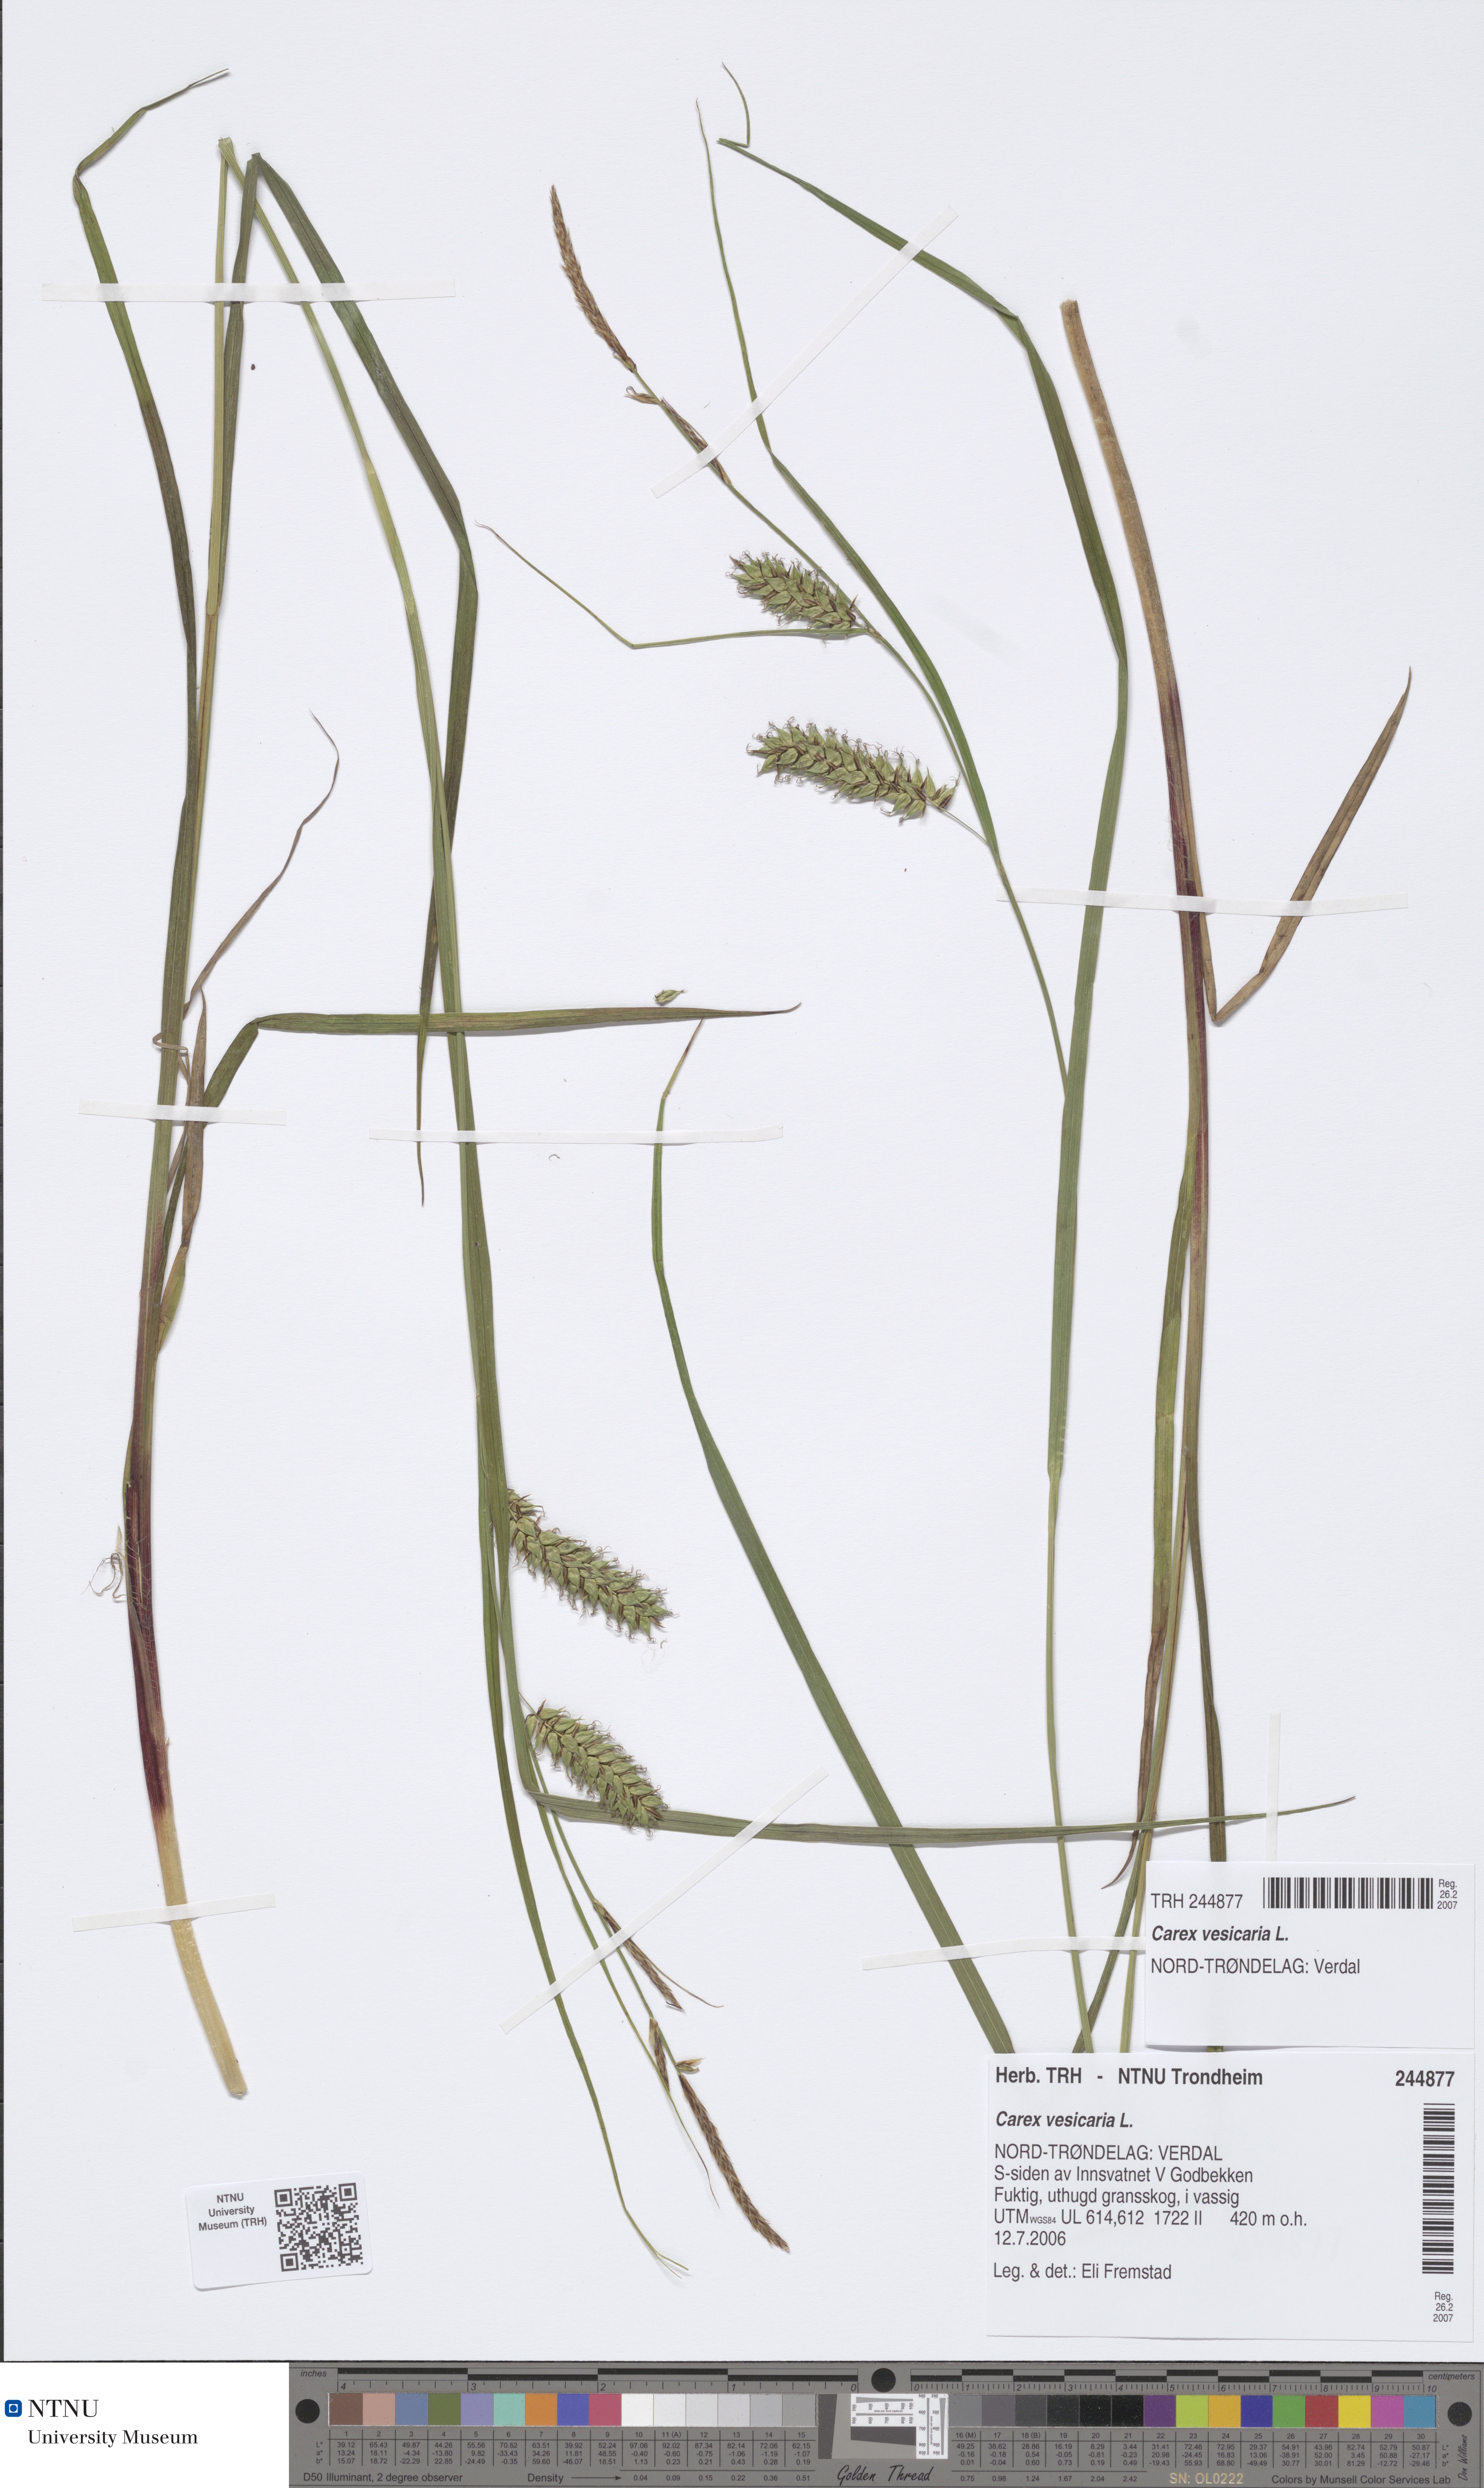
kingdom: Plantae
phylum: Tracheophyta
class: Liliopsida
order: Poales
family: Cyperaceae
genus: Carex
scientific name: Carex vesicaria
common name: Bladder-sedge
